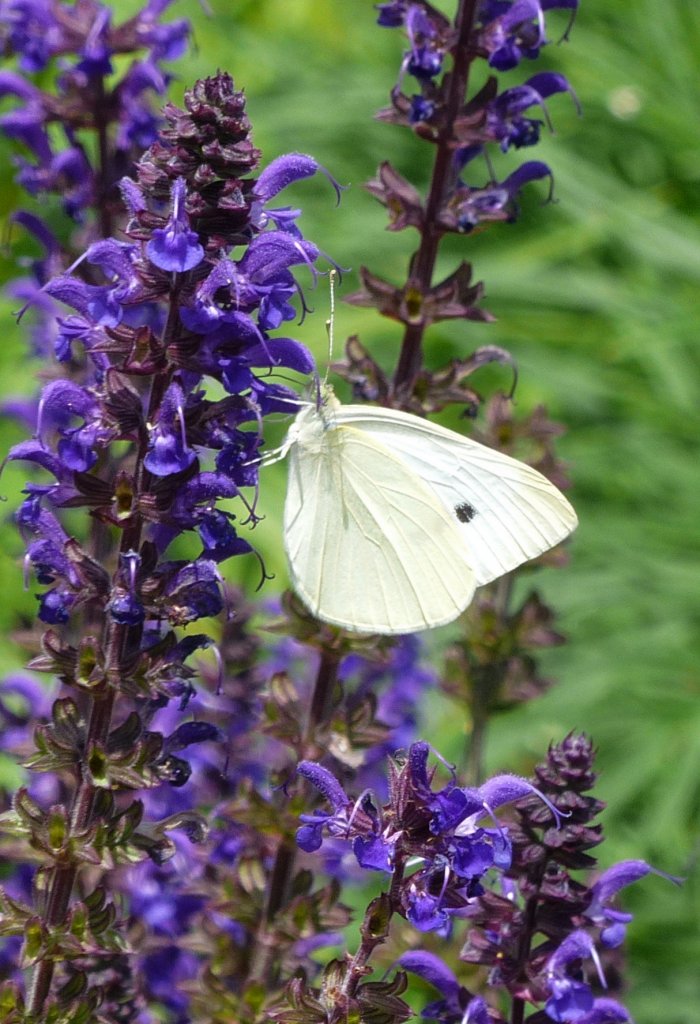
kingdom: Animalia
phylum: Arthropoda
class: Insecta
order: Lepidoptera
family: Pieridae
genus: Pieris
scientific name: Pieris rapae
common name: Cabbage White
